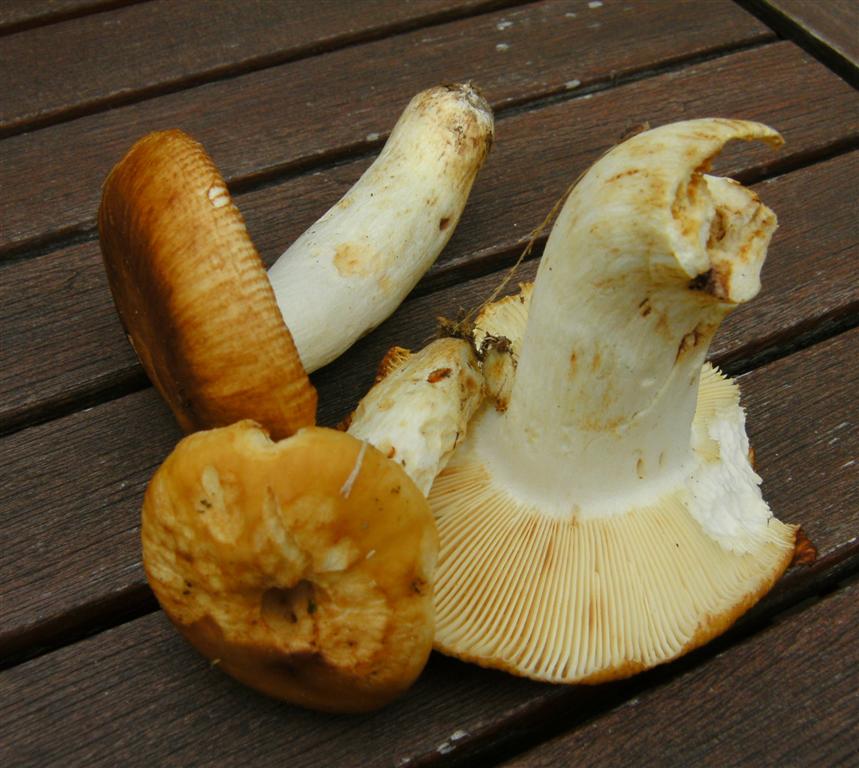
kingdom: Fungi
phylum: Basidiomycota
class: Agaricomycetes
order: Russulales
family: Russulaceae
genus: Russula
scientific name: Russula foetens
